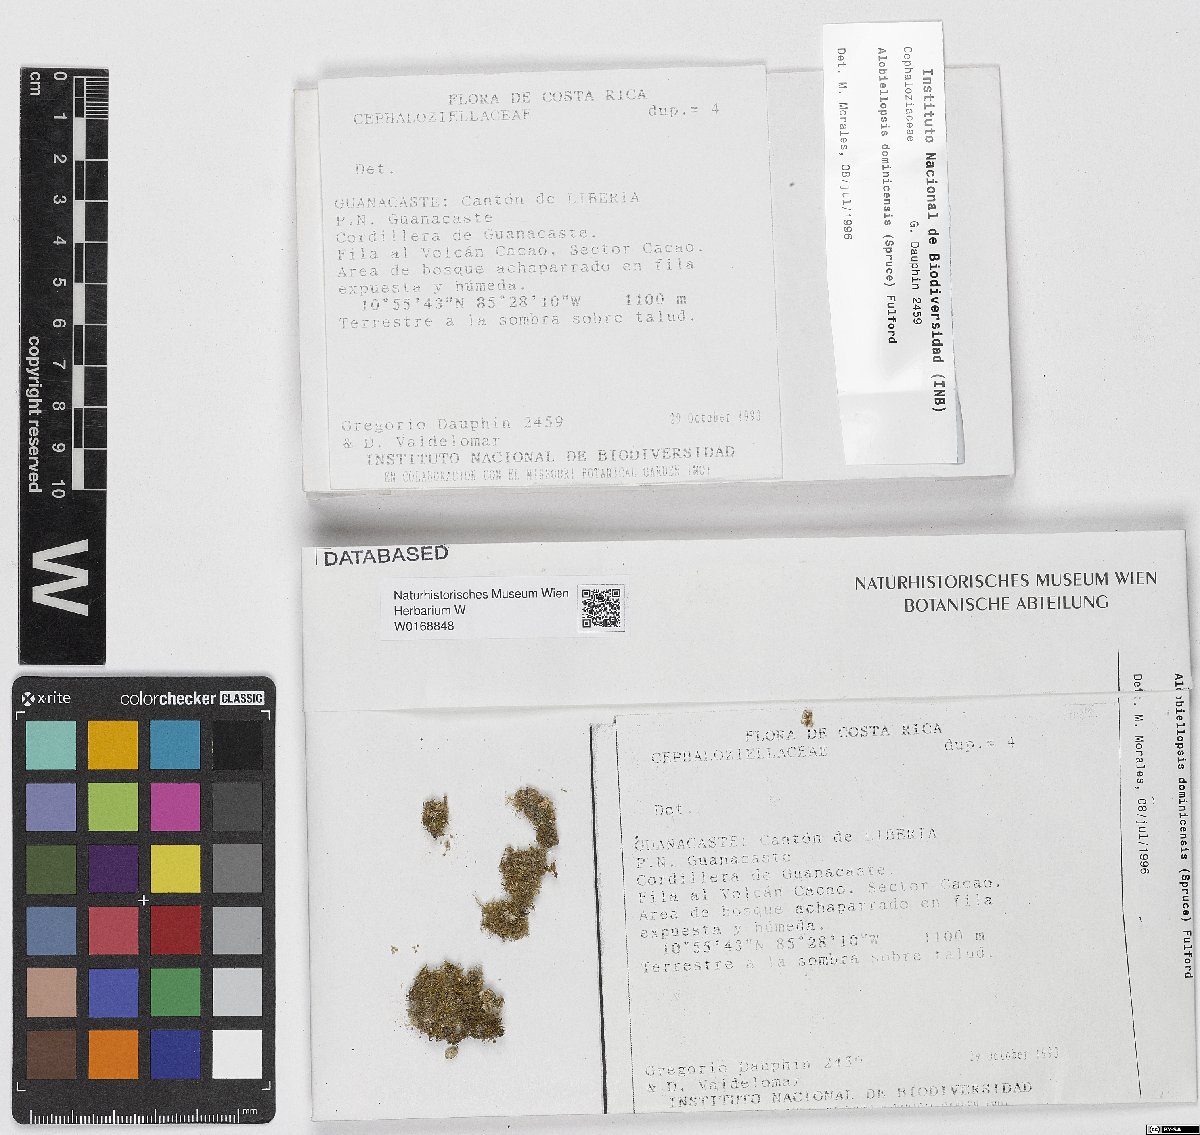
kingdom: Plantae
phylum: Marchantiophyta
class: Jungermanniopsida
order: Jungermanniales
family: Cephaloziellaceae
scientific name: Cephaloziellaceae
